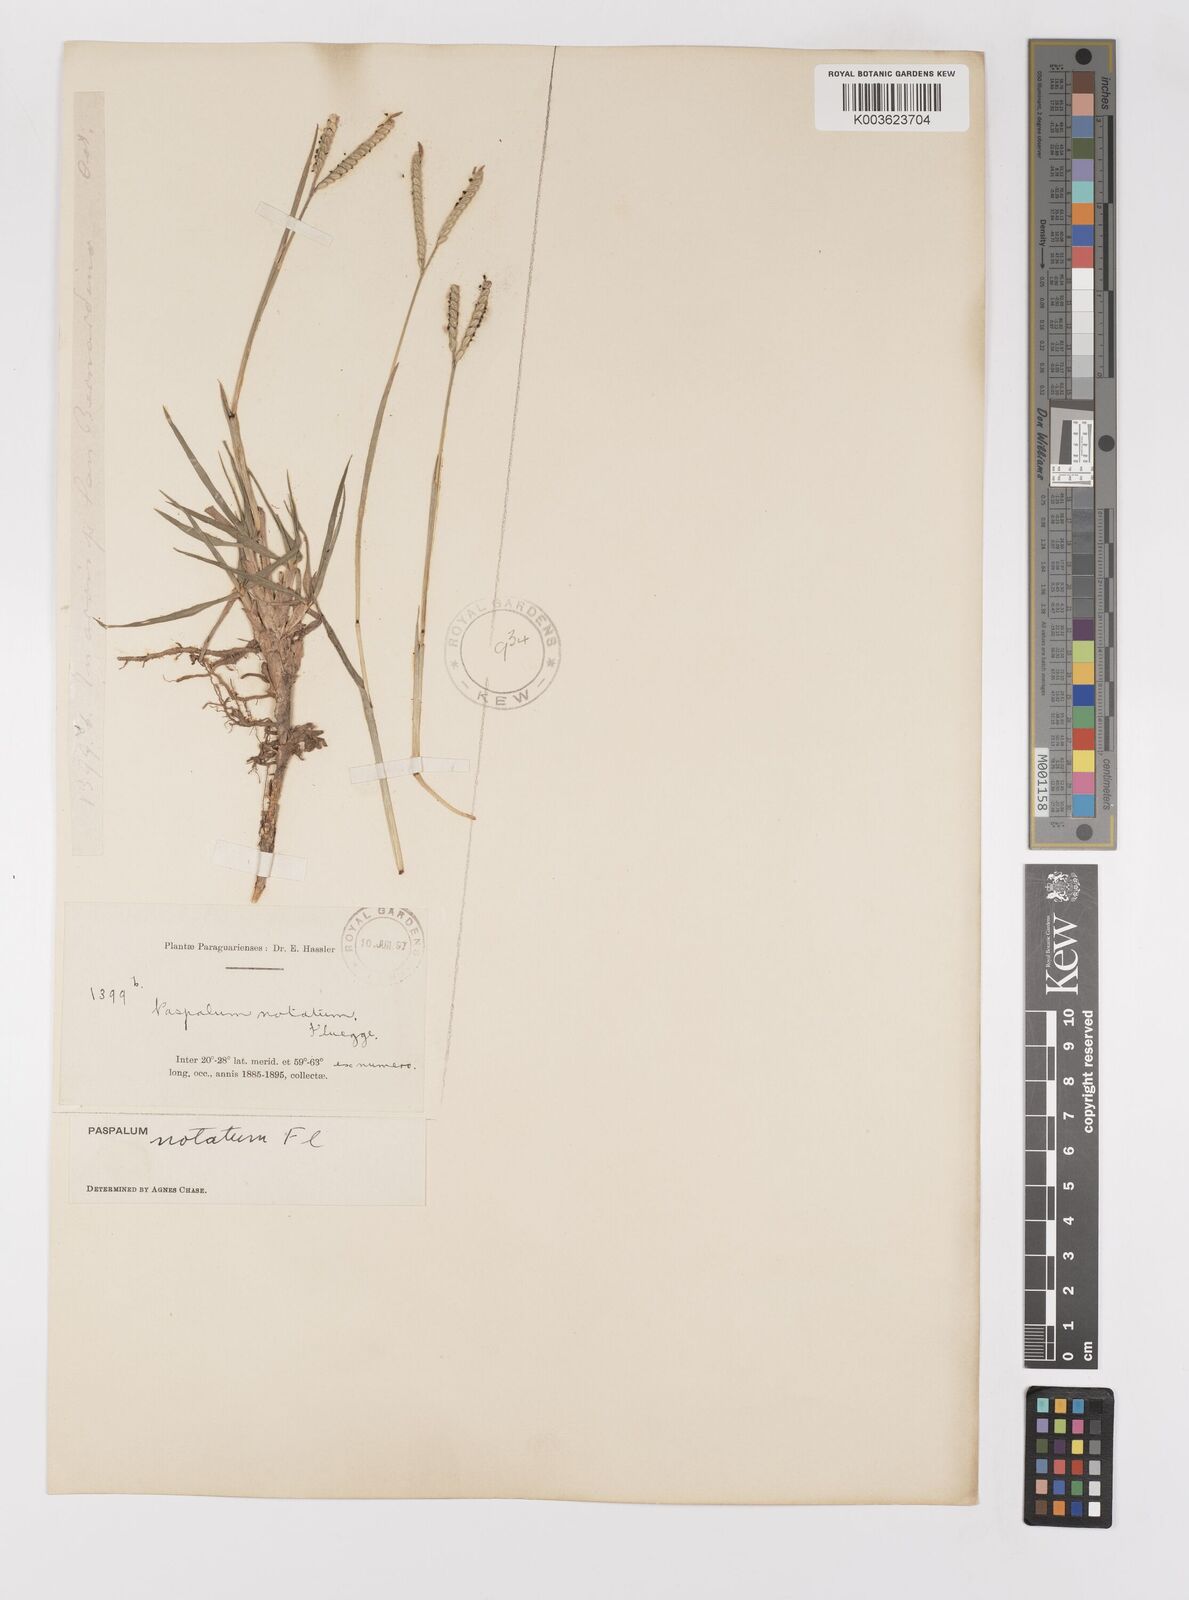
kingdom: Plantae
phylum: Tracheophyta
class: Liliopsida
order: Poales
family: Poaceae
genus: Paspalum
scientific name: Paspalum notatum
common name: Bahiagrass
